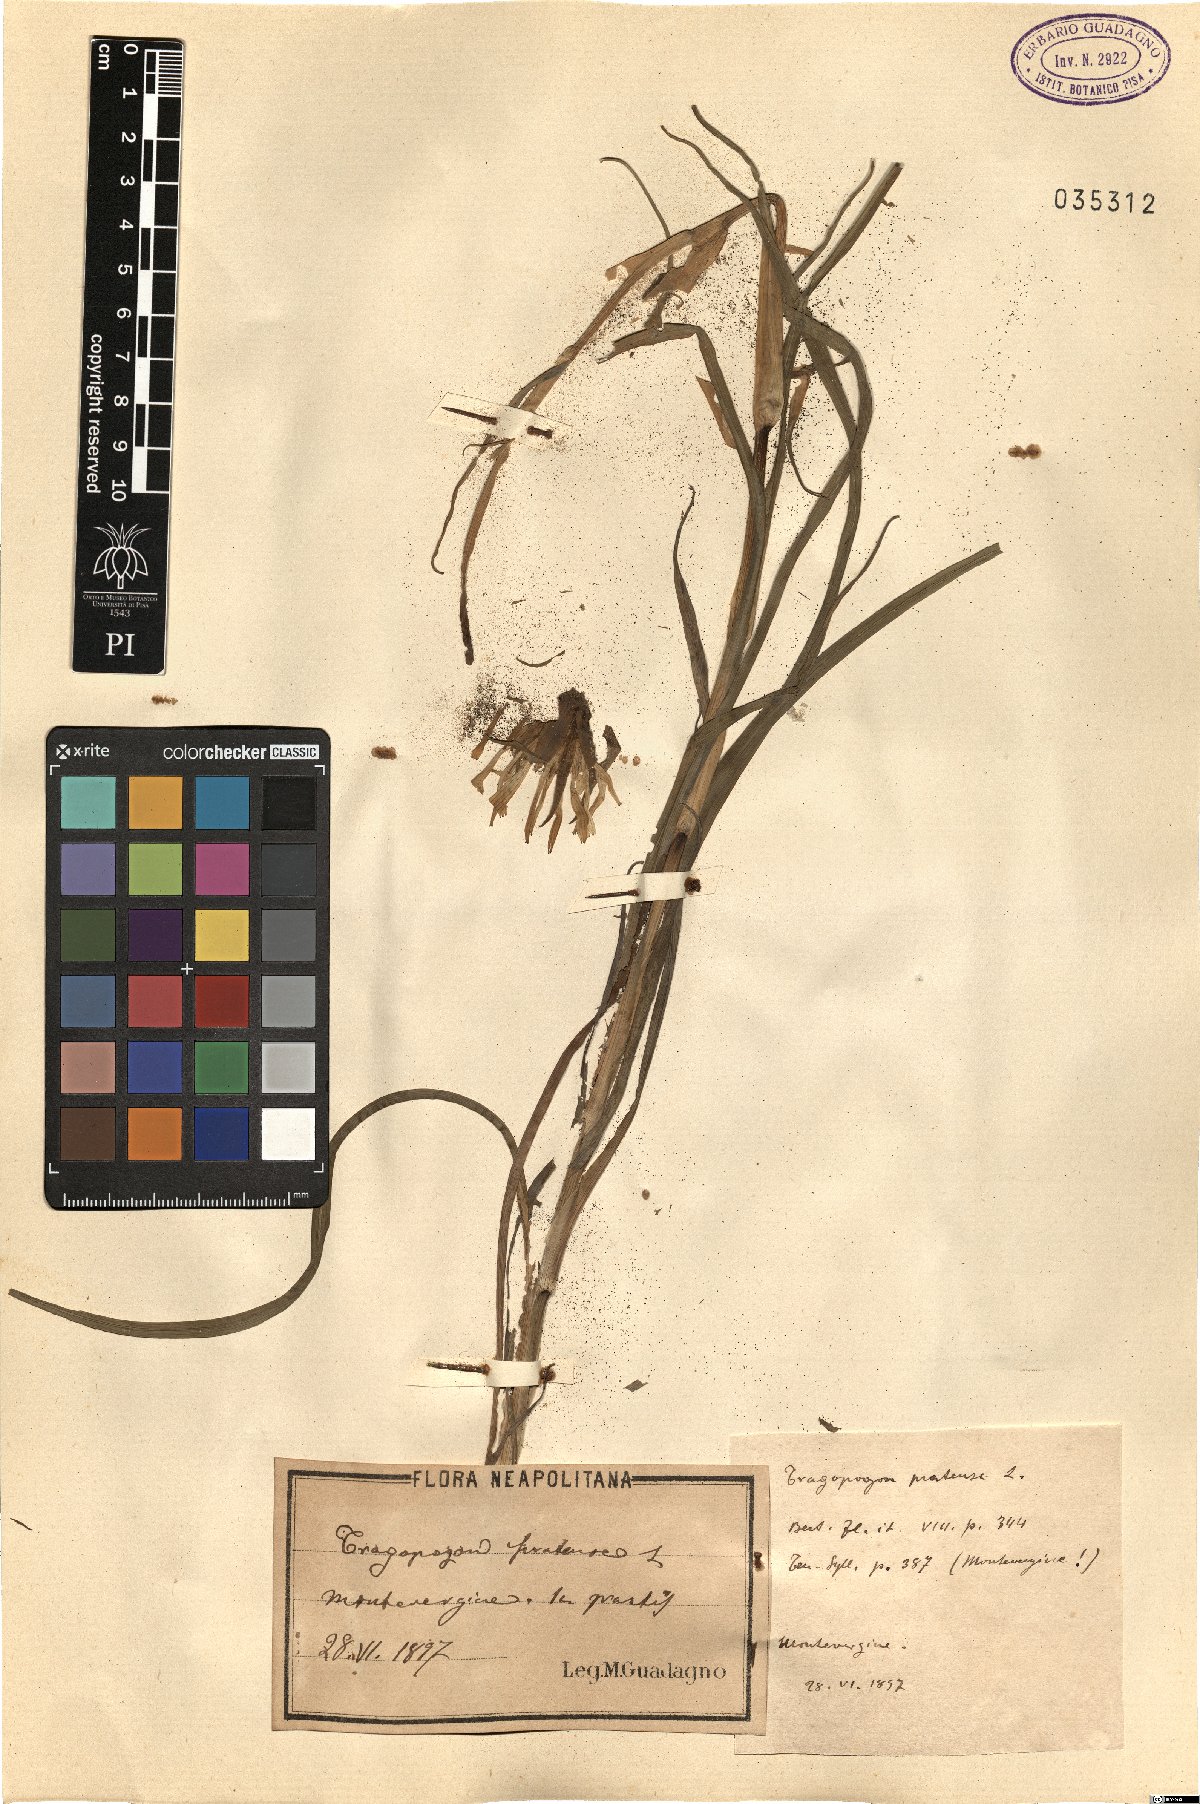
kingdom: Plantae
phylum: Tracheophyta
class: Magnoliopsida
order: Asterales
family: Asteraceae
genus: Tragopogon
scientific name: Tragopogon pratensis
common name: Goat's-beard
